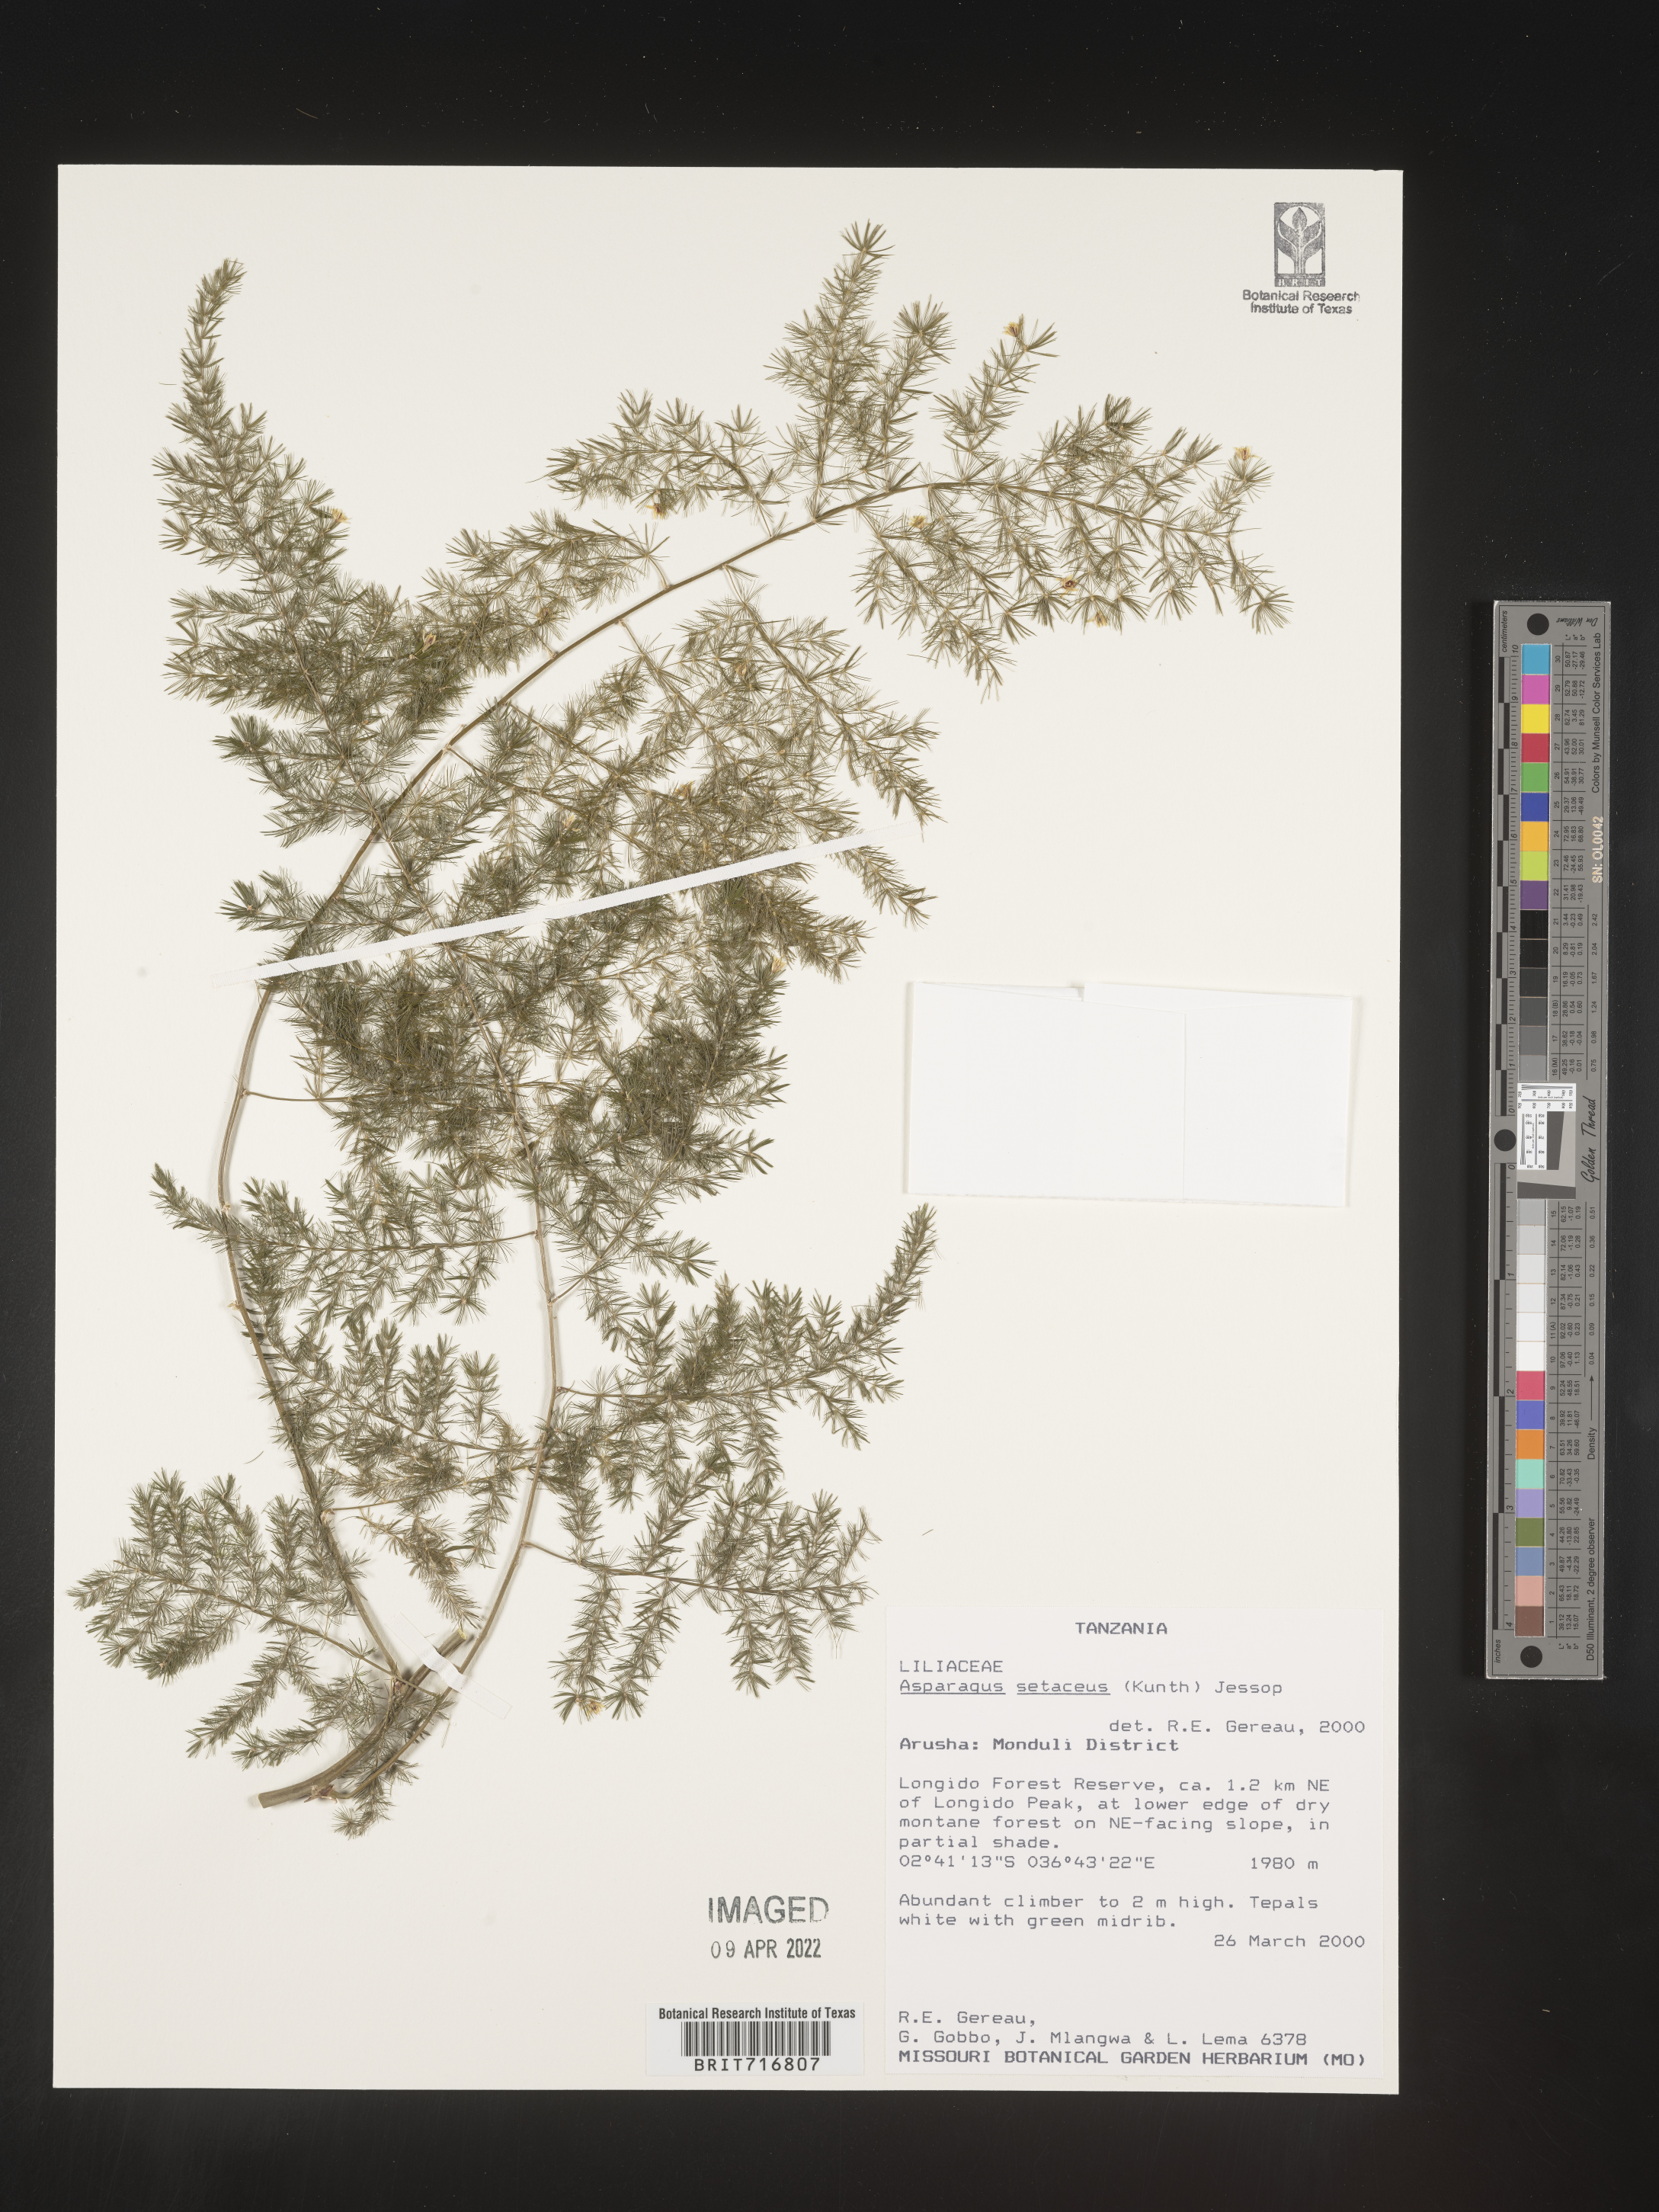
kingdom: Plantae
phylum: Tracheophyta
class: Liliopsida
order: Asparagales
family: Asparagaceae
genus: Asparagus
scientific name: Asparagus
